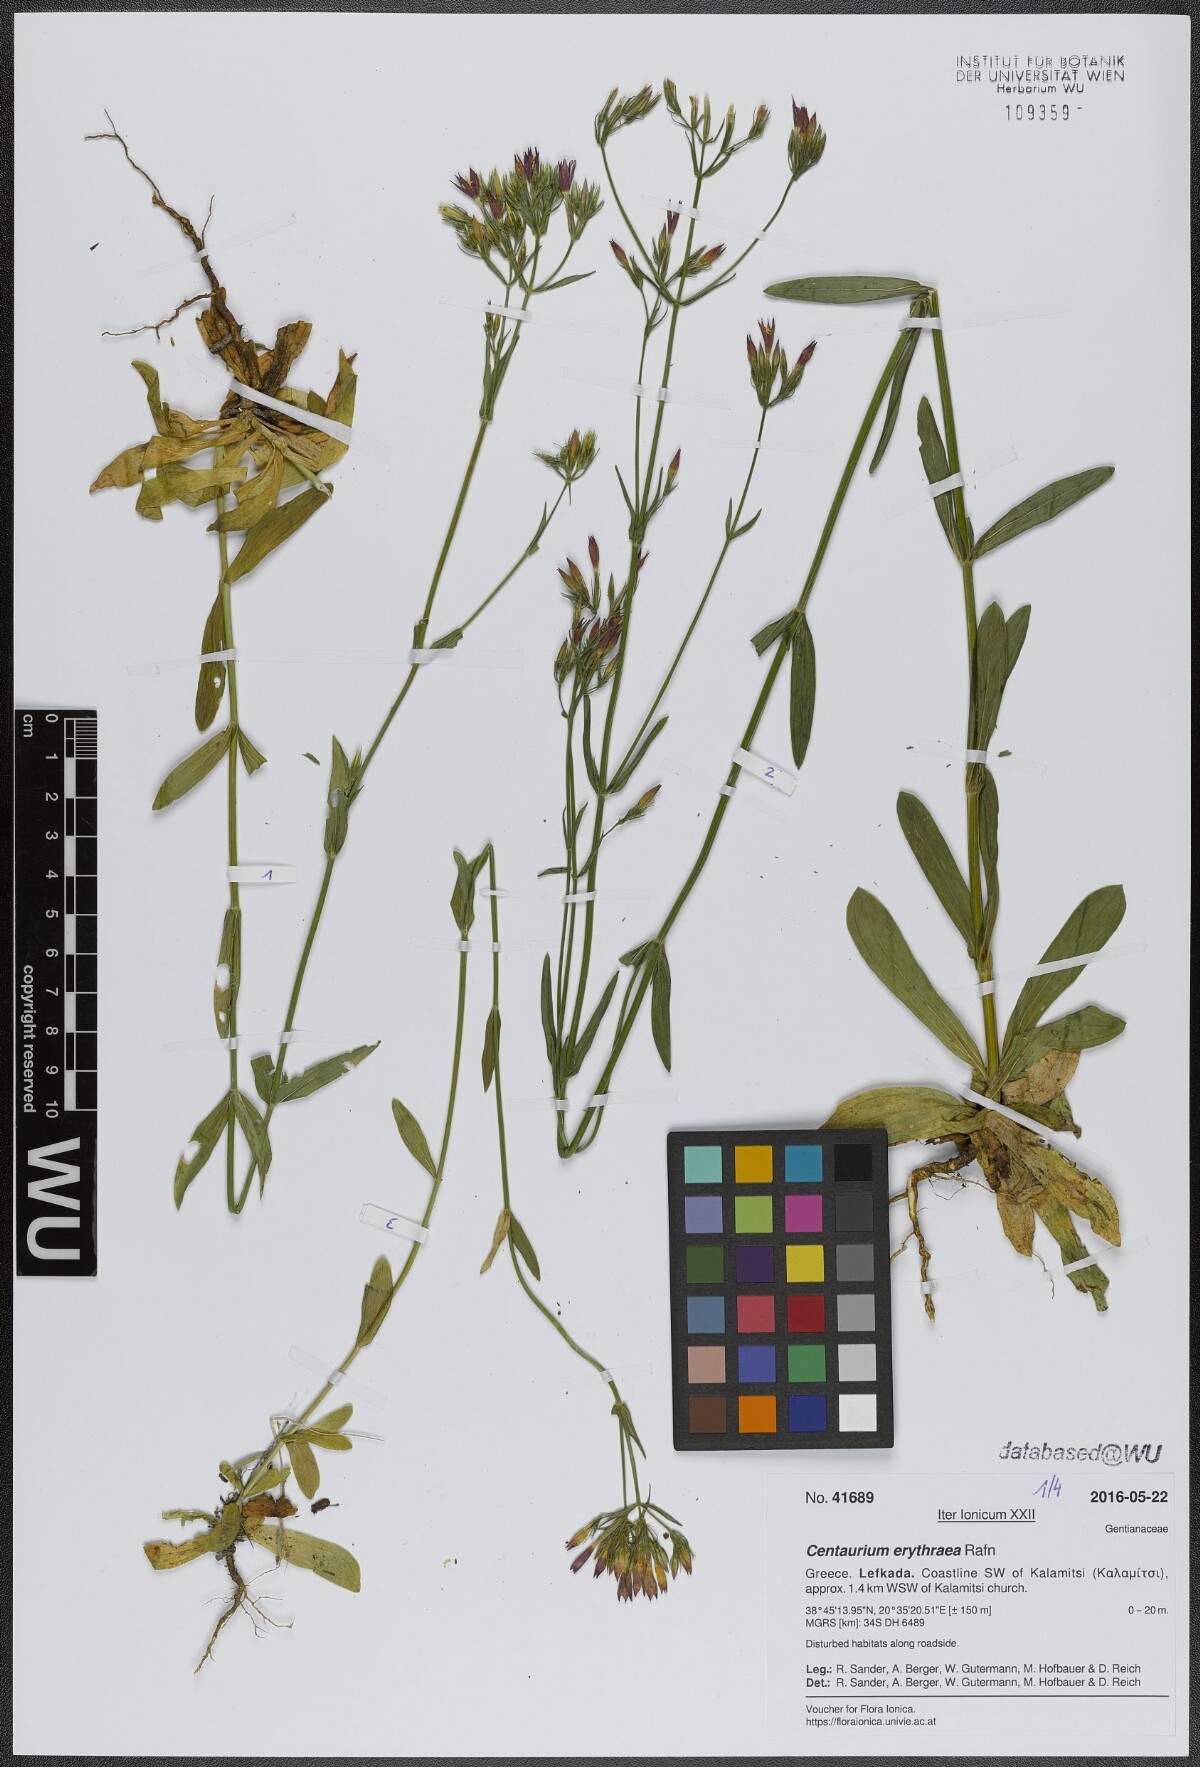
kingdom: Plantae
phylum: Tracheophyta
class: Magnoliopsida
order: Gentianales
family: Gentianaceae
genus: Centaurium
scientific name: Centaurium erythraea
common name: Common centaury
